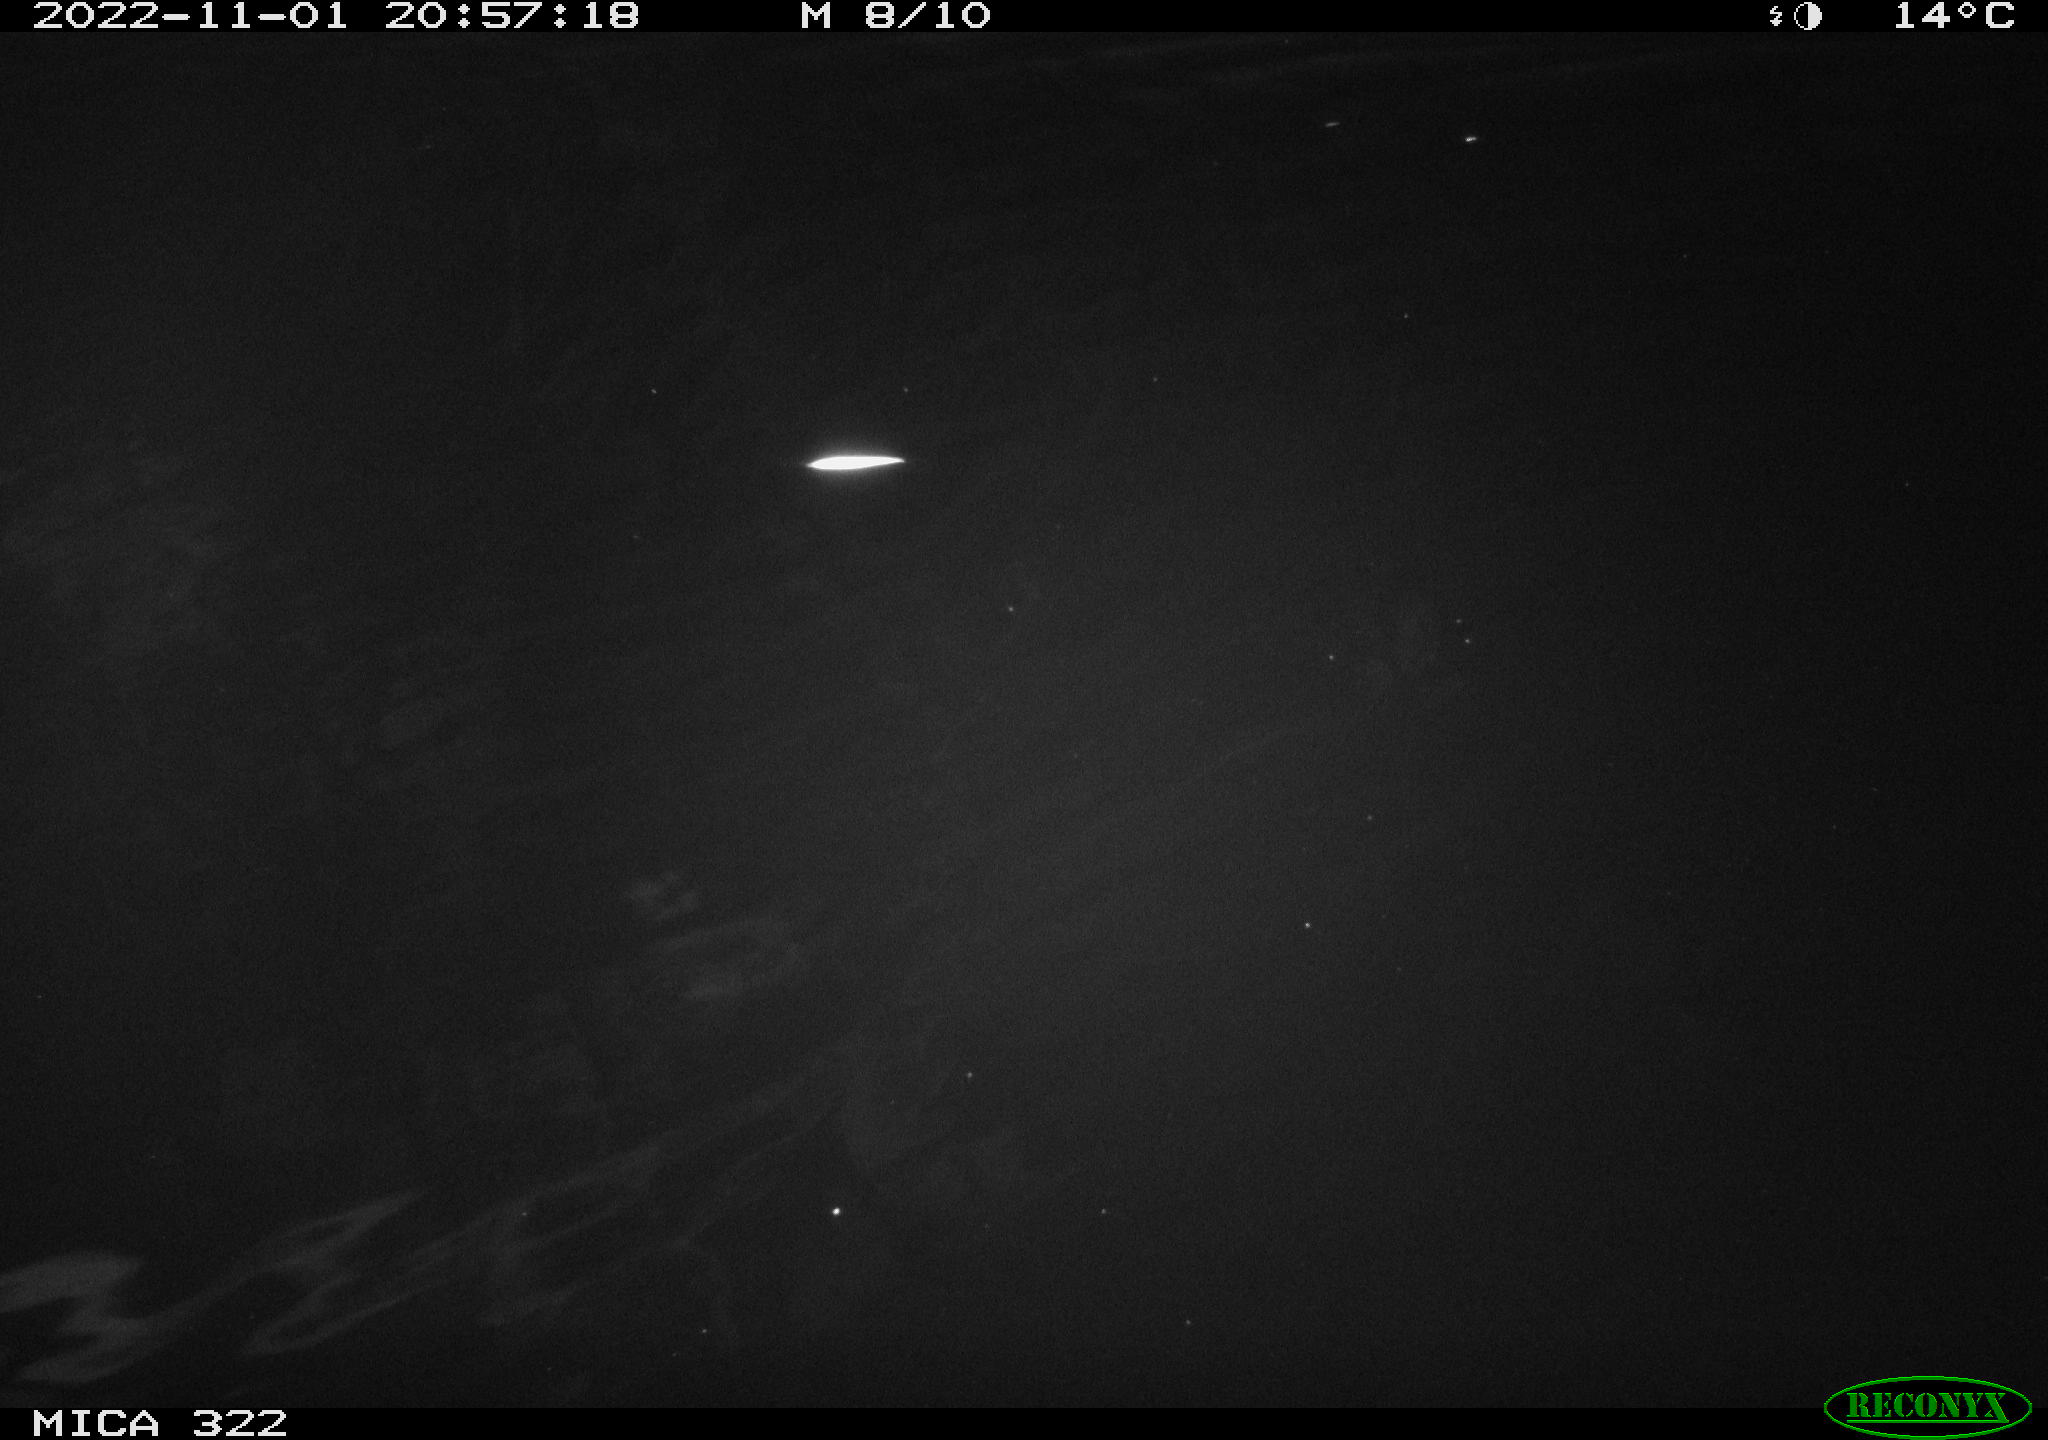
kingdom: Animalia
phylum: Chordata
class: Mammalia
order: Rodentia
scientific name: Rodentia
